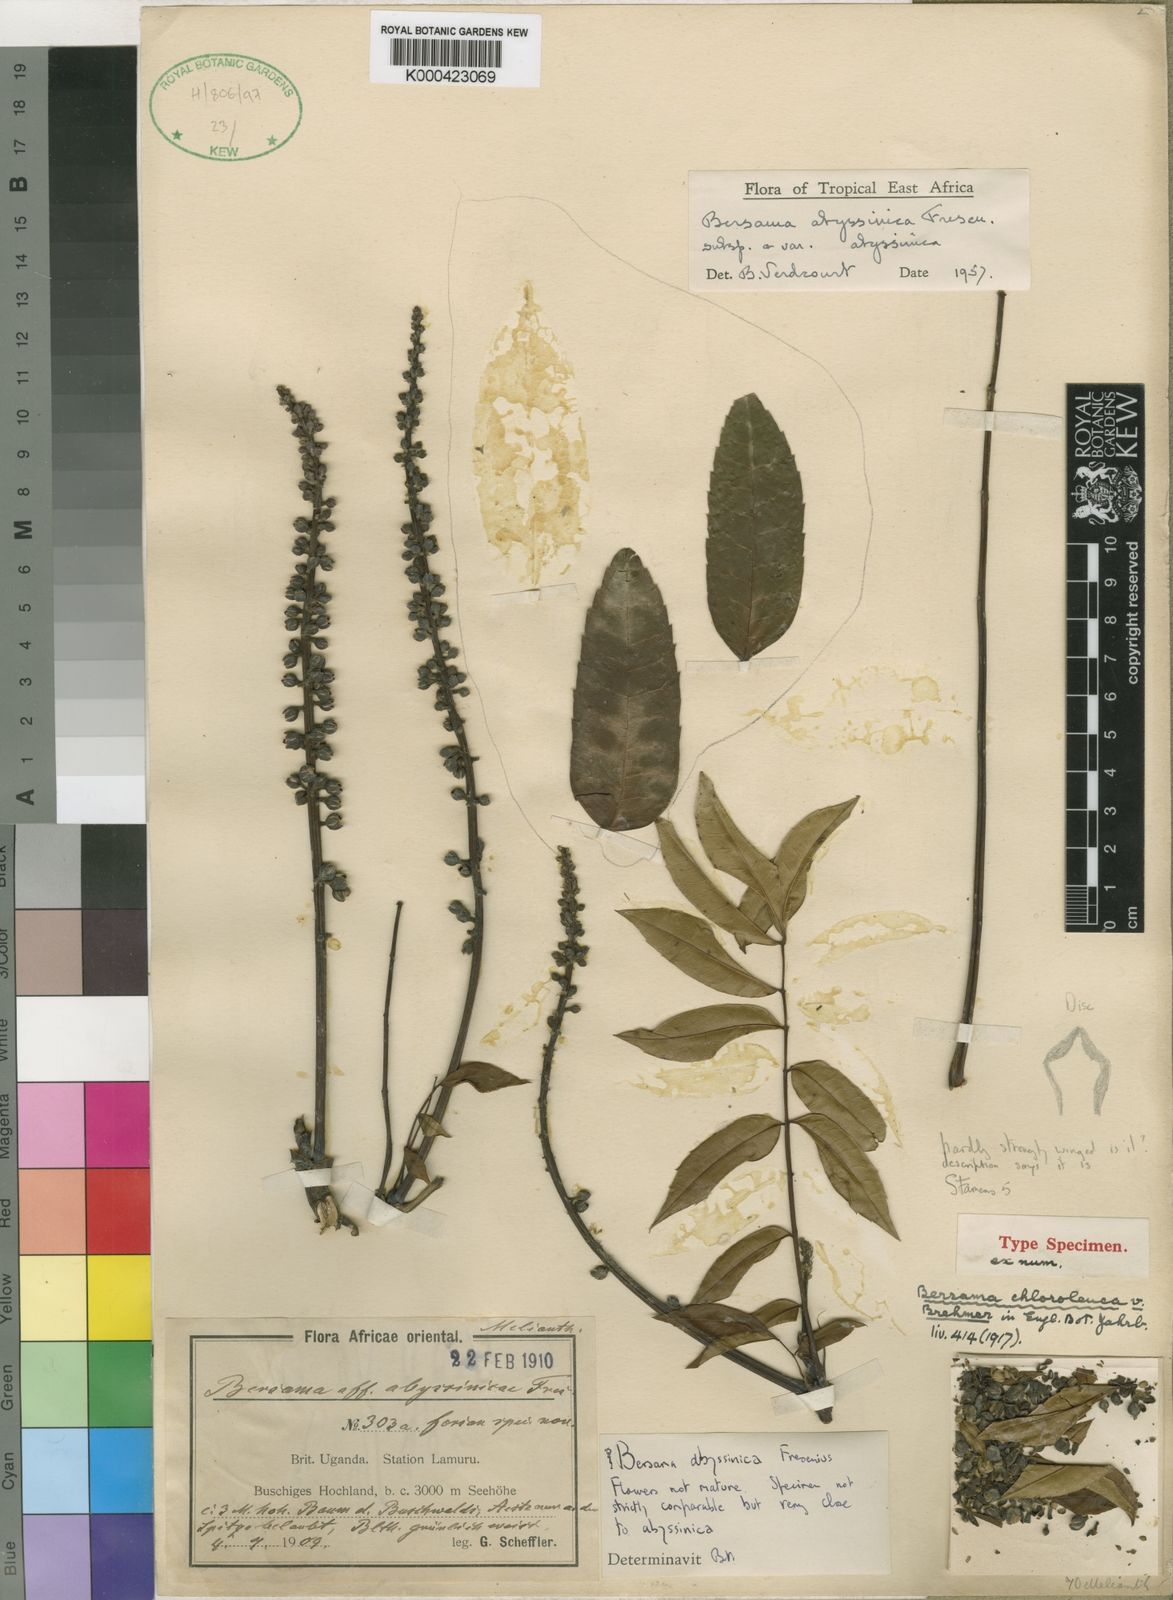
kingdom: Plantae
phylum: Tracheophyta
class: Magnoliopsida
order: Geraniales
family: Melianthaceae
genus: Bersama
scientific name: Bersama abyssinica
